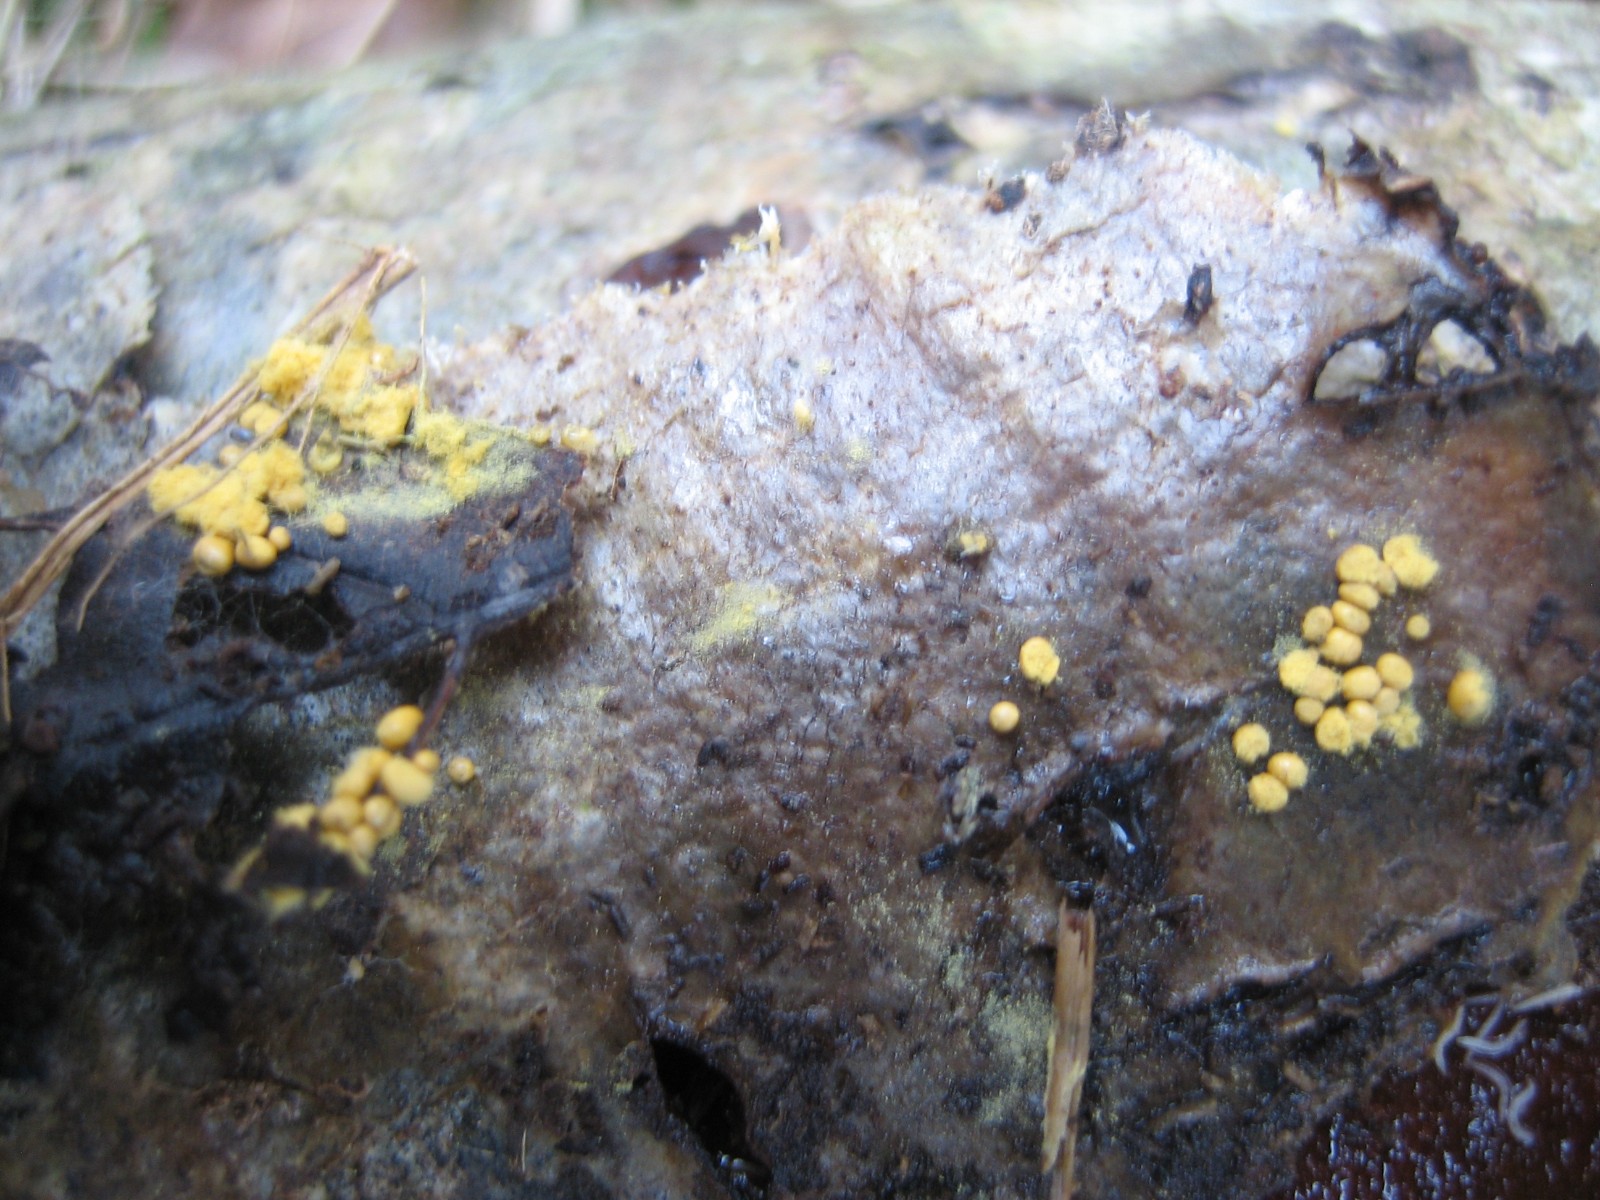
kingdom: Protozoa
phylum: Mycetozoa
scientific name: Mycetozoa
